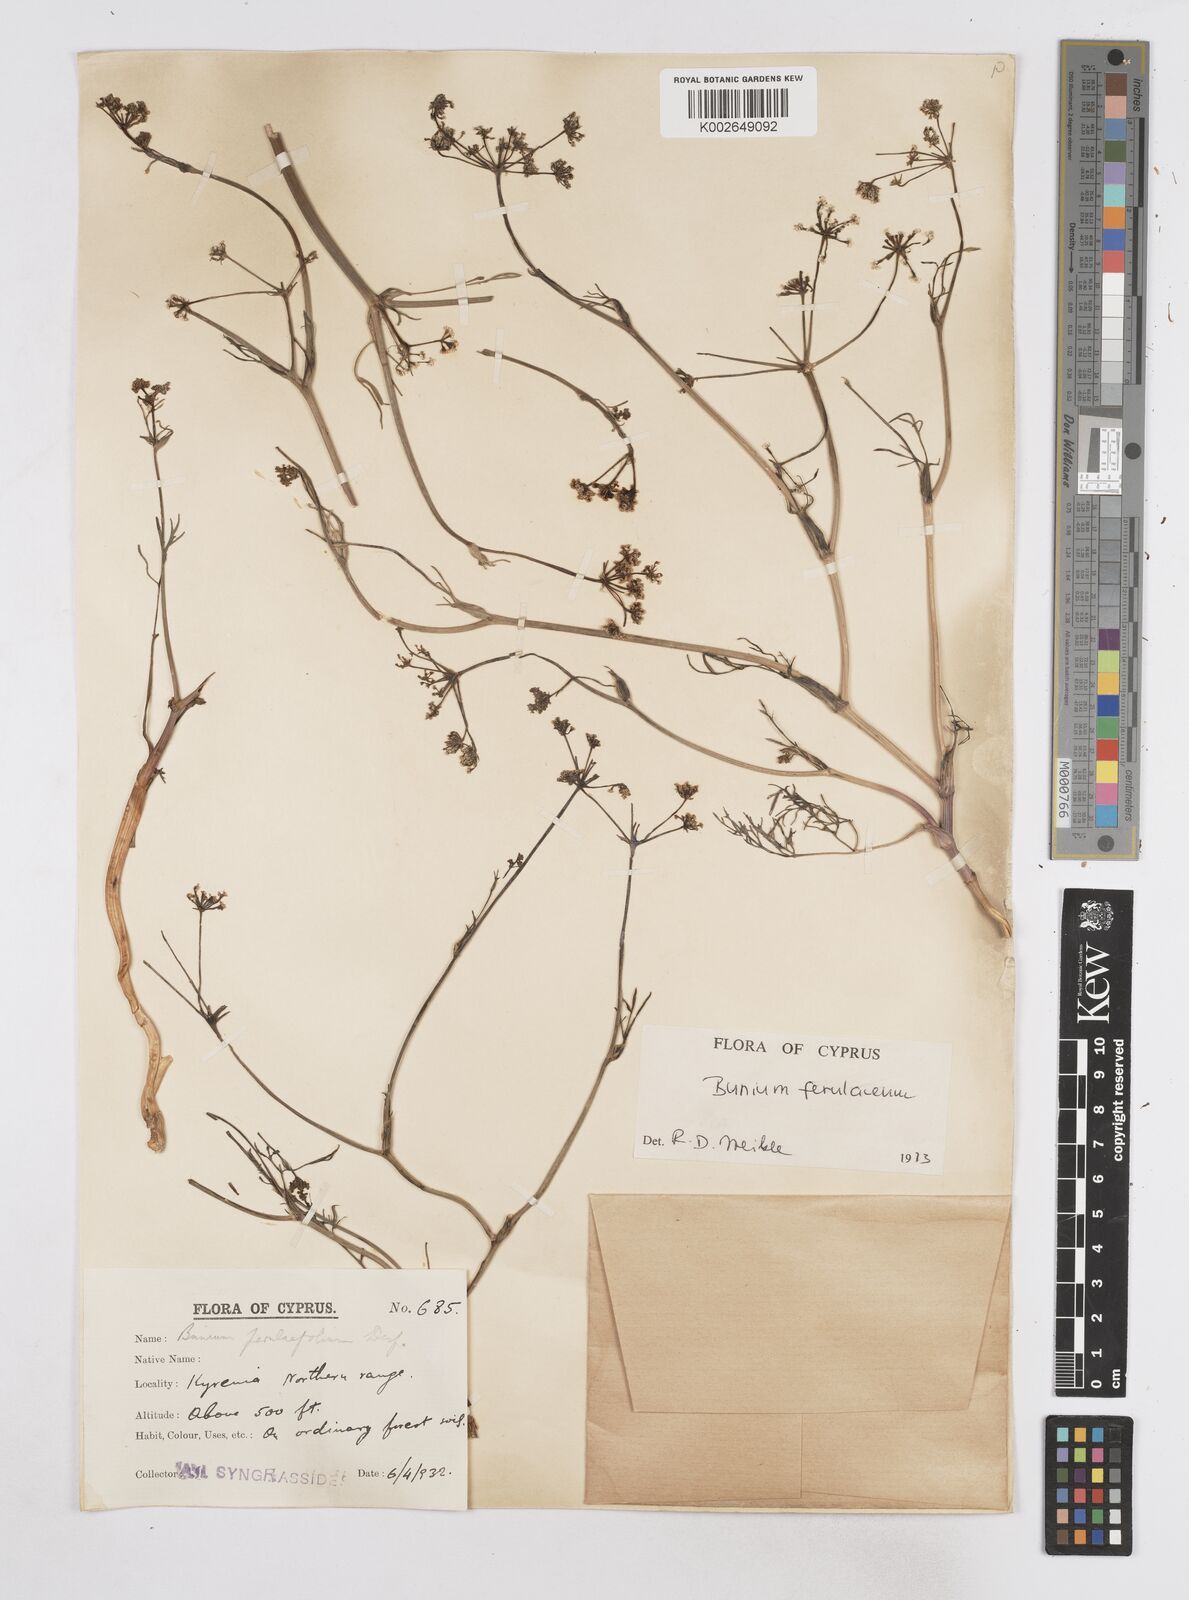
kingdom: Plantae
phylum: Tracheophyta
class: Magnoliopsida
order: Apiales
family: Apiaceae
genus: Bunium
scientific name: Bunium ferulaceum
